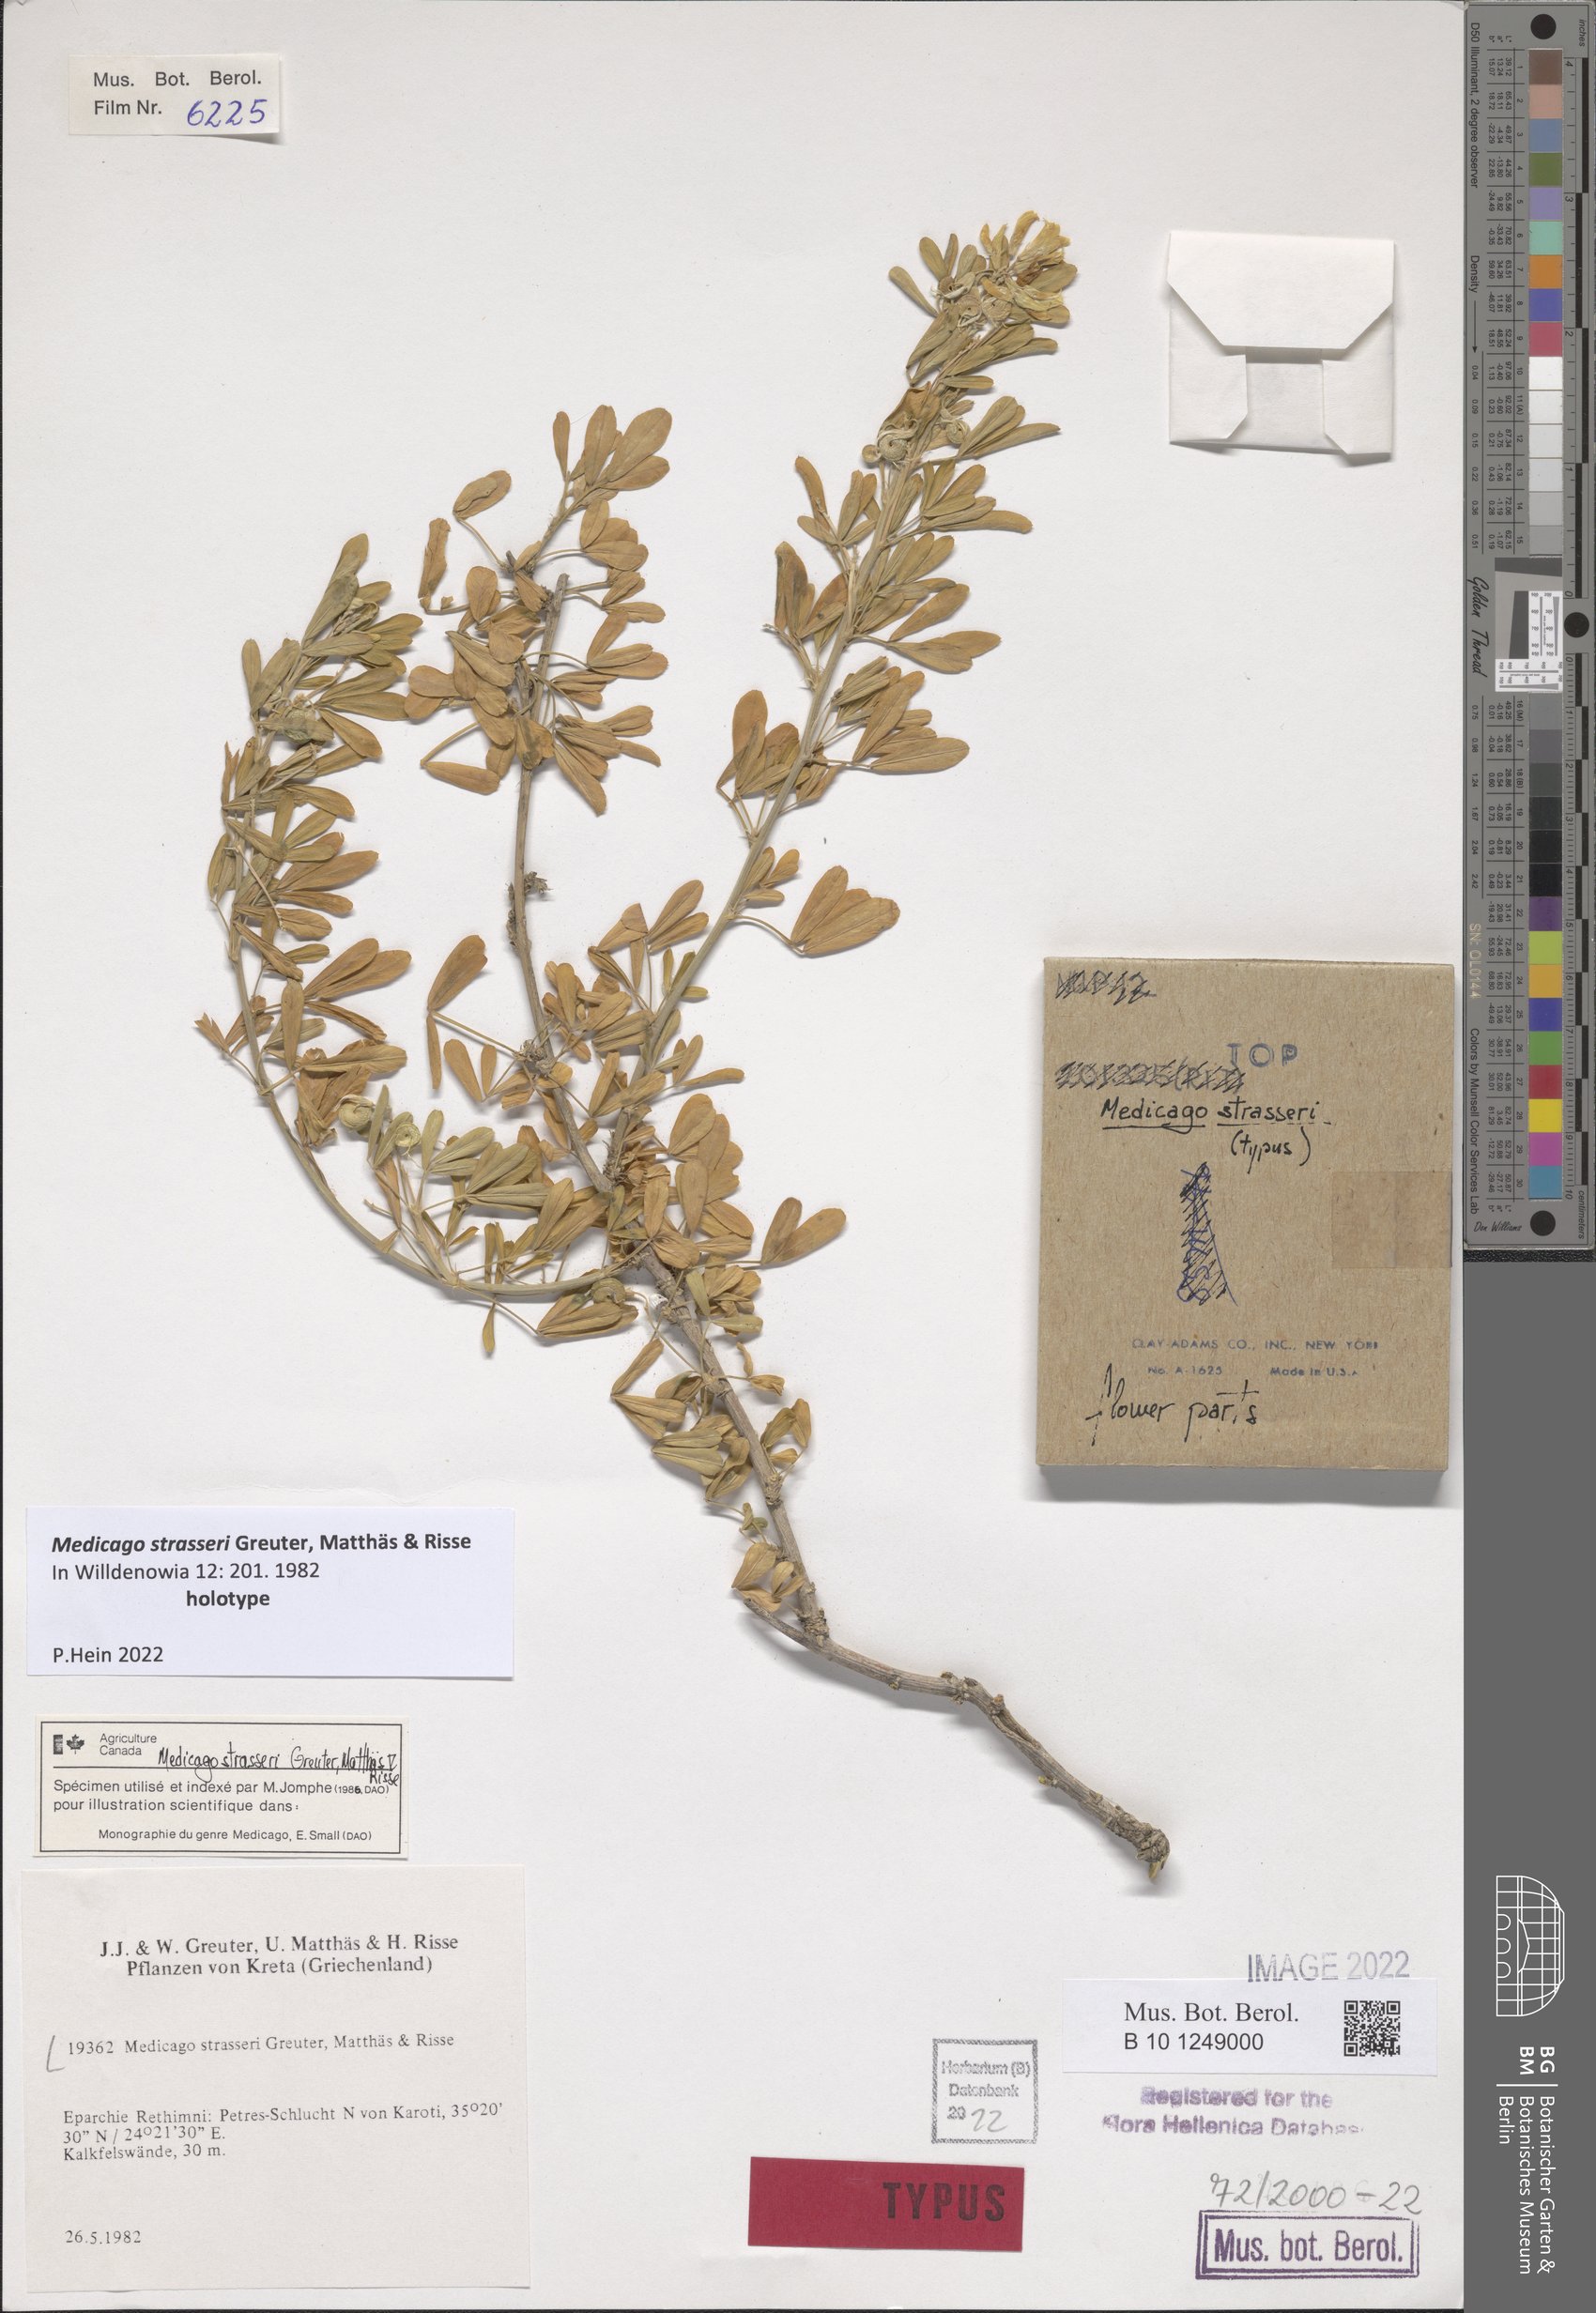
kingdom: Plantae
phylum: Tracheophyta
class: Magnoliopsida
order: Fabales
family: Fabaceae
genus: Medicago
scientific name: Medicago arborea
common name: Moon trefoil
